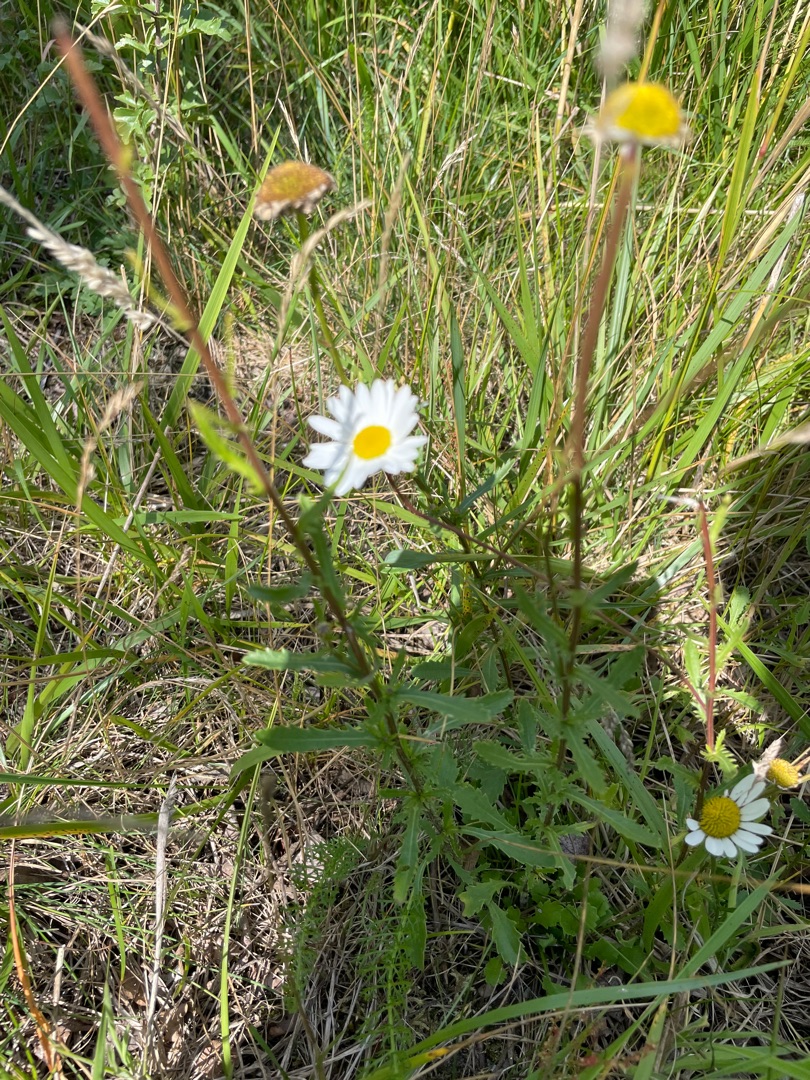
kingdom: Plantae
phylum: Tracheophyta
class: Magnoliopsida
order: Asterales
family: Asteraceae
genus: Leucanthemum
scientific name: Leucanthemum vulgare
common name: Hvid okseøje
